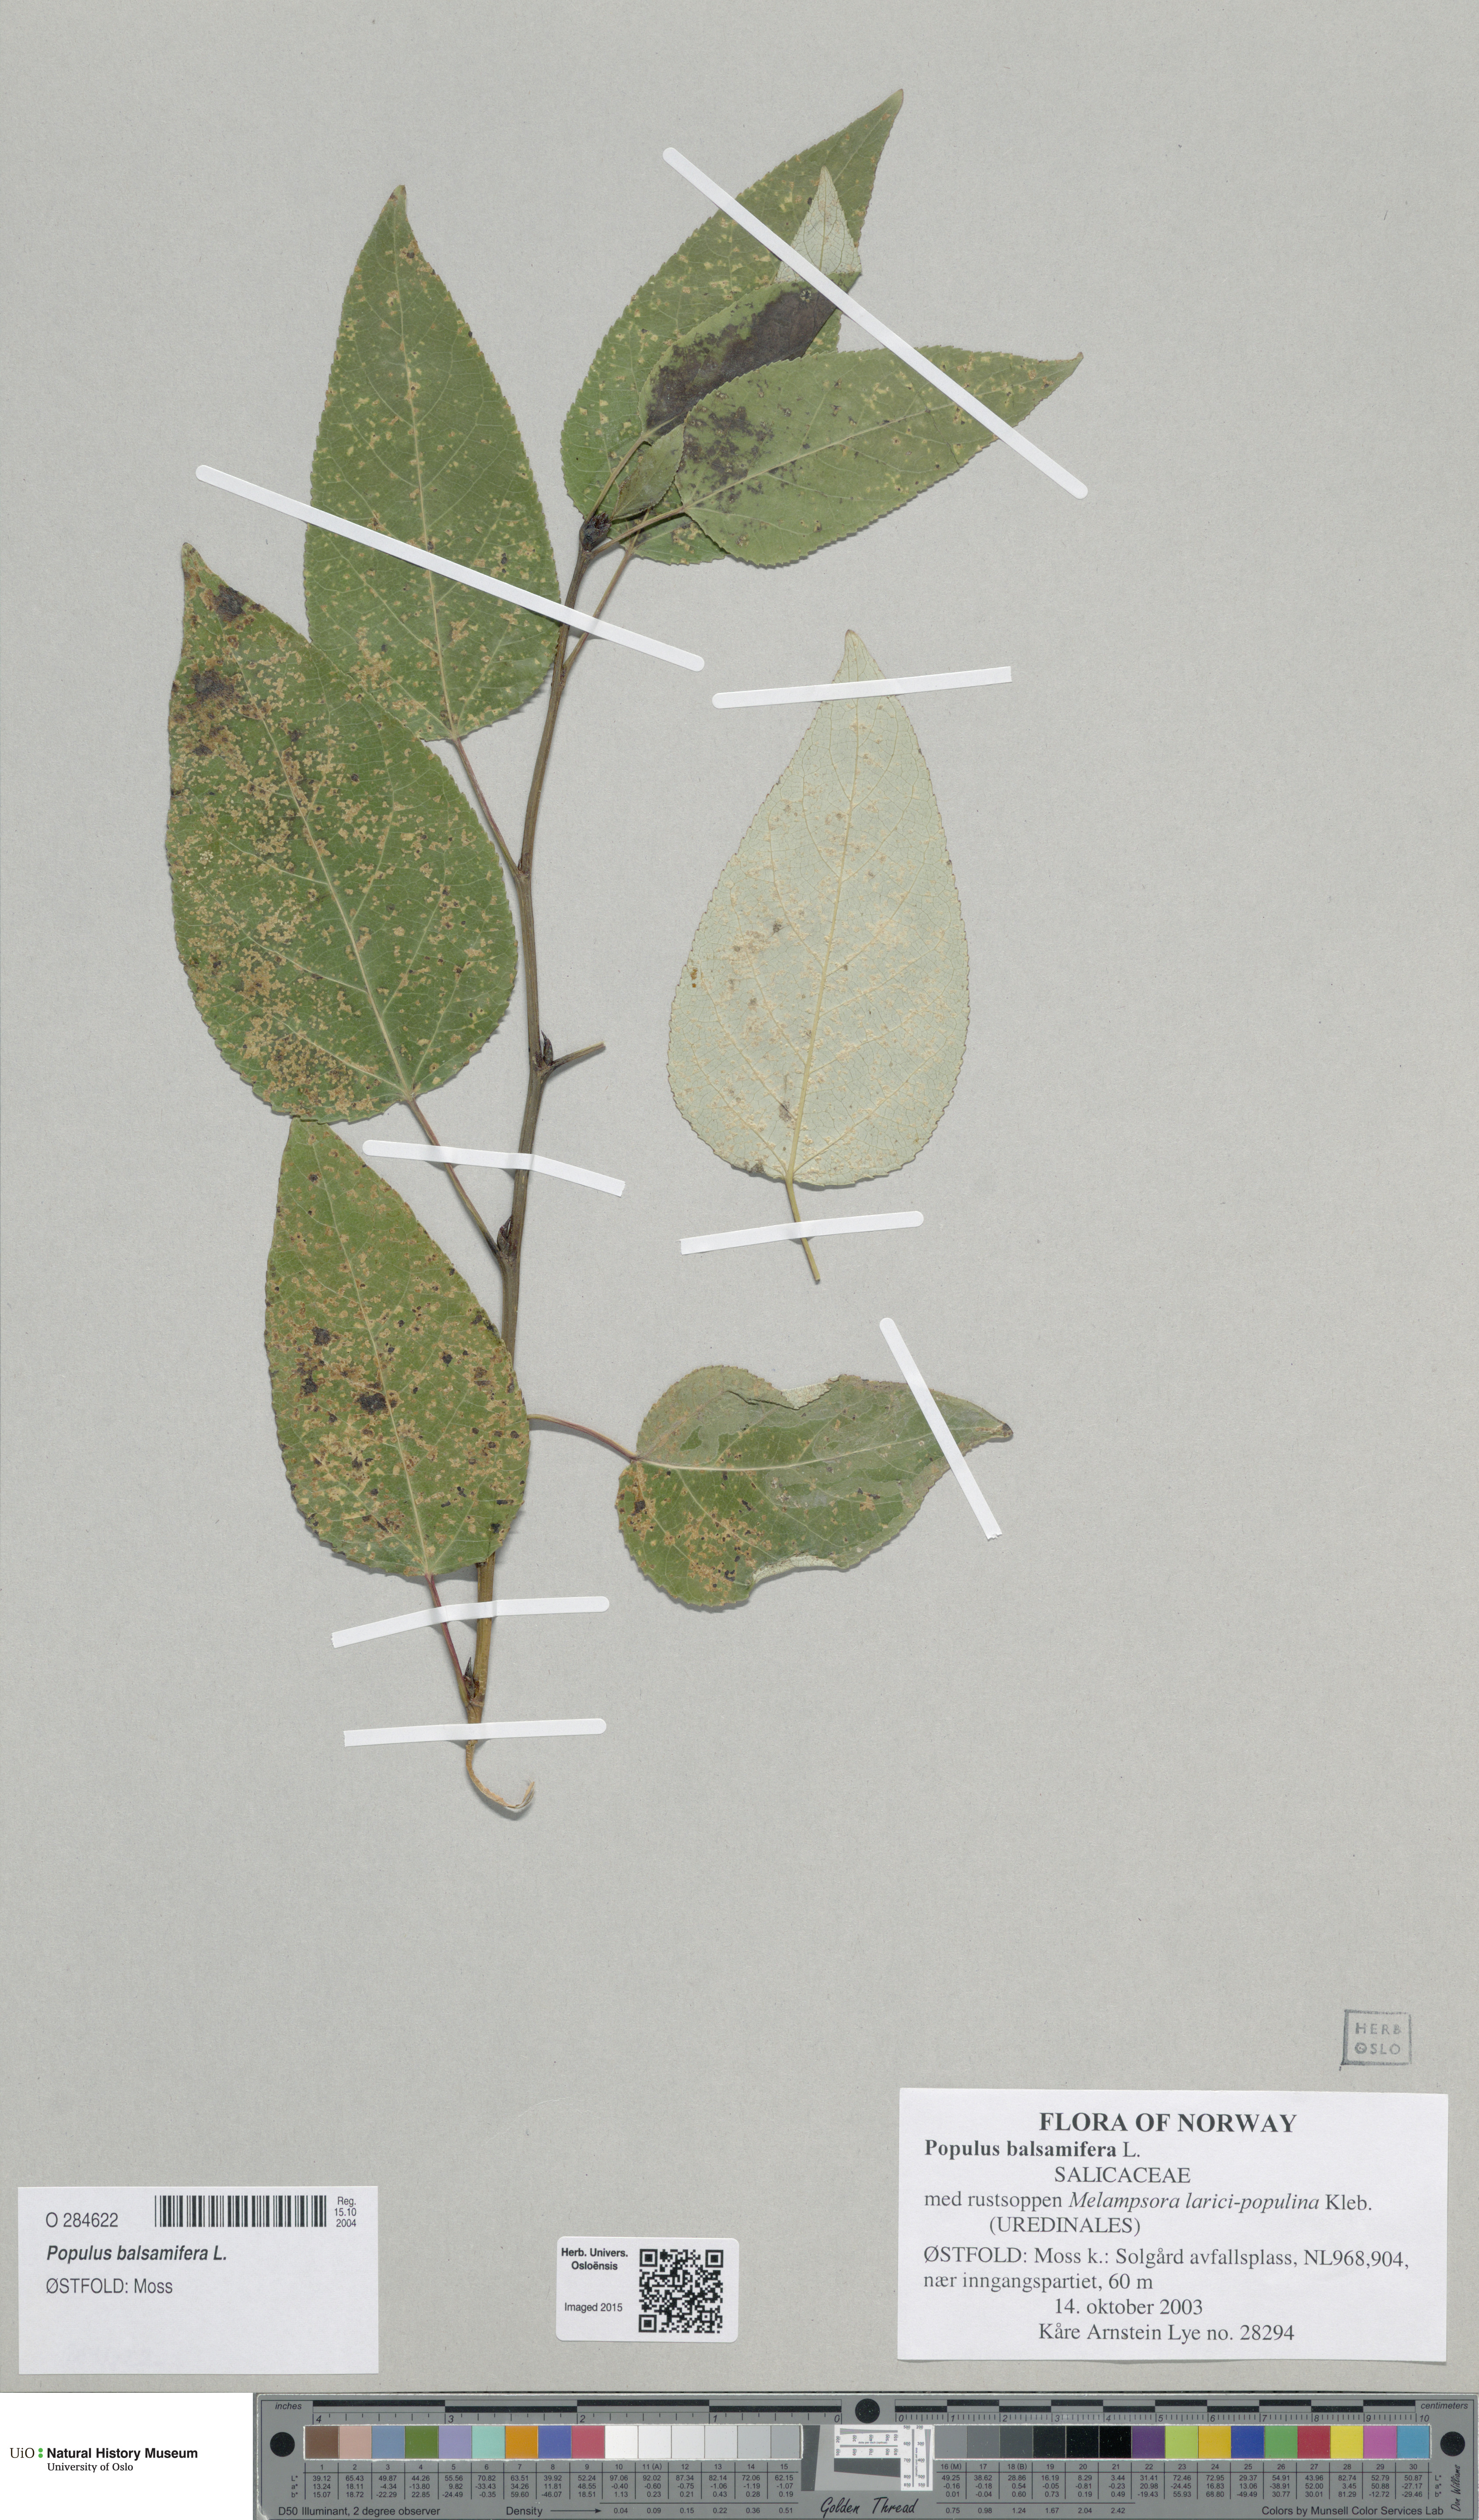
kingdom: Plantae
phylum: Tracheophyta
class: Magnoliopsida
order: Malpighiales
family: Salicaceae
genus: Populus
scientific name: Populus trichocarpa
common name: Black cottonwood
